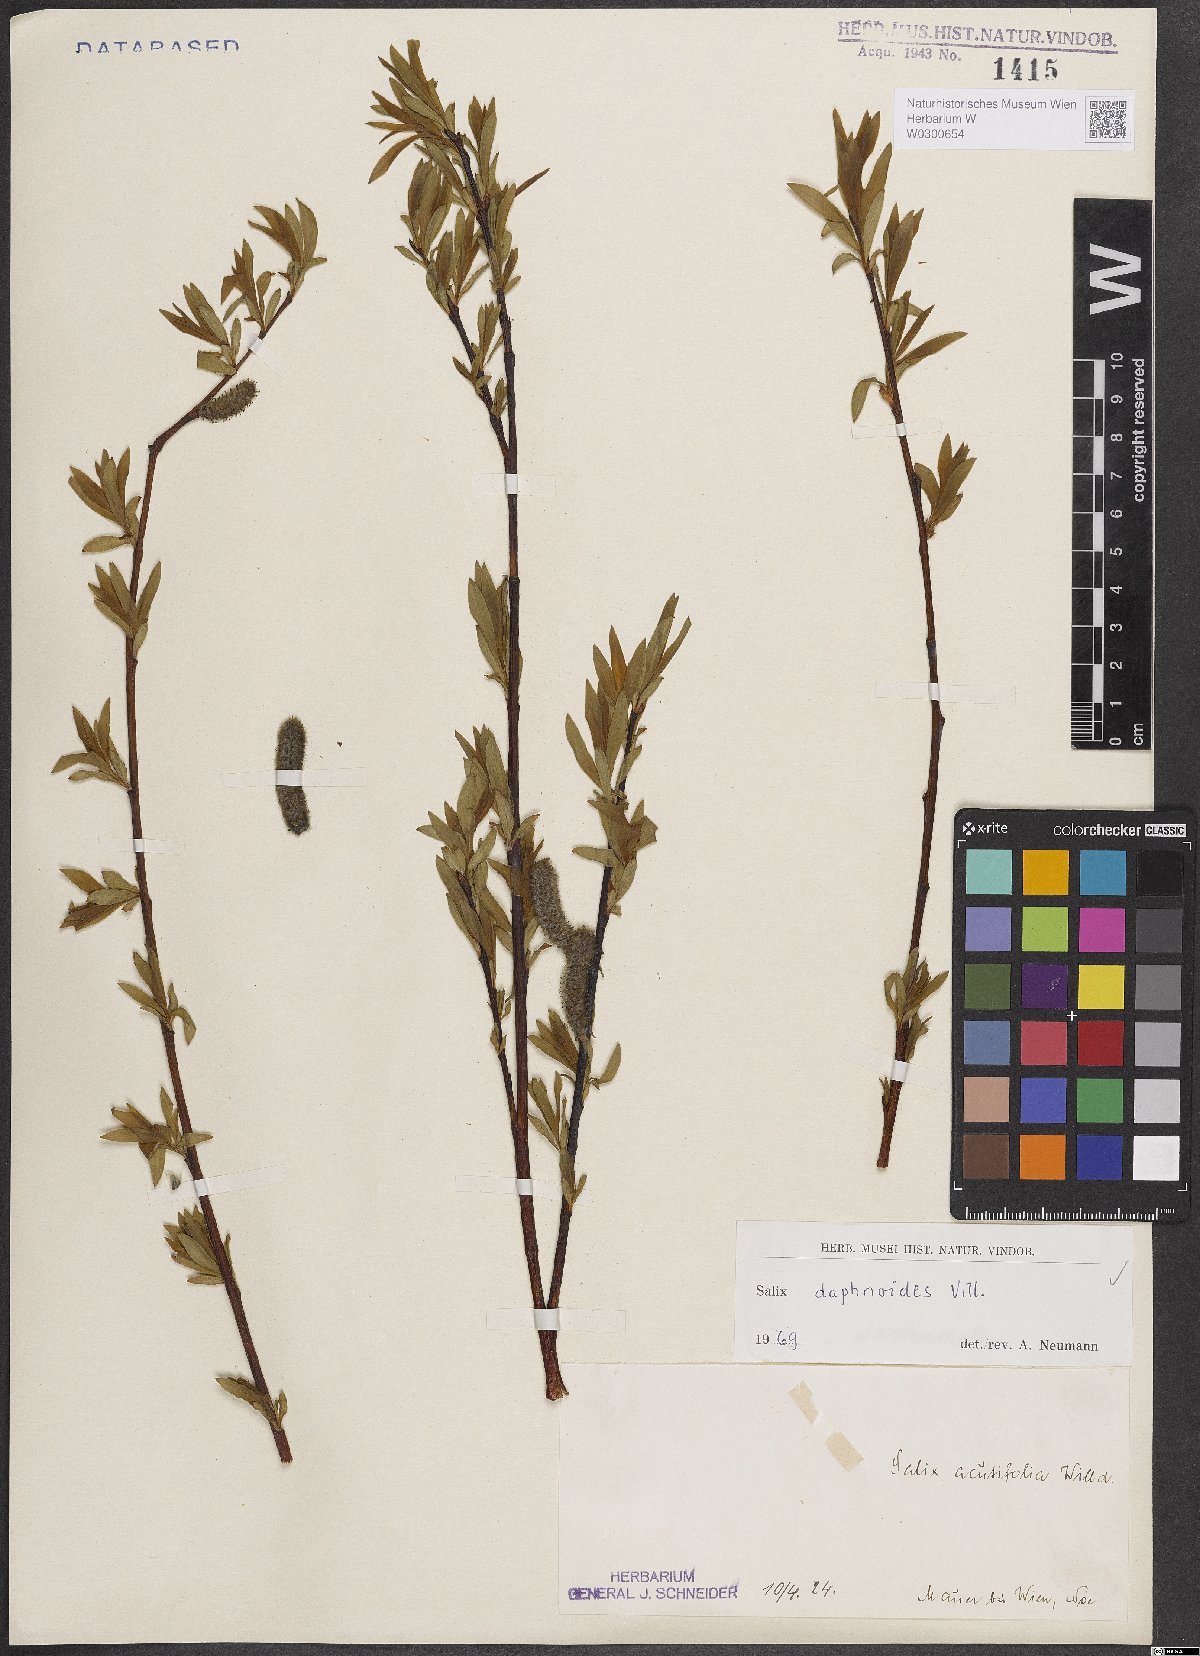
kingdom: Plantae
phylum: Tracheophyta
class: Magnoliopsida
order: Malpighiales
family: Salicaceae
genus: Salix
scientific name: Salix daphnoides
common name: European violet-willow
